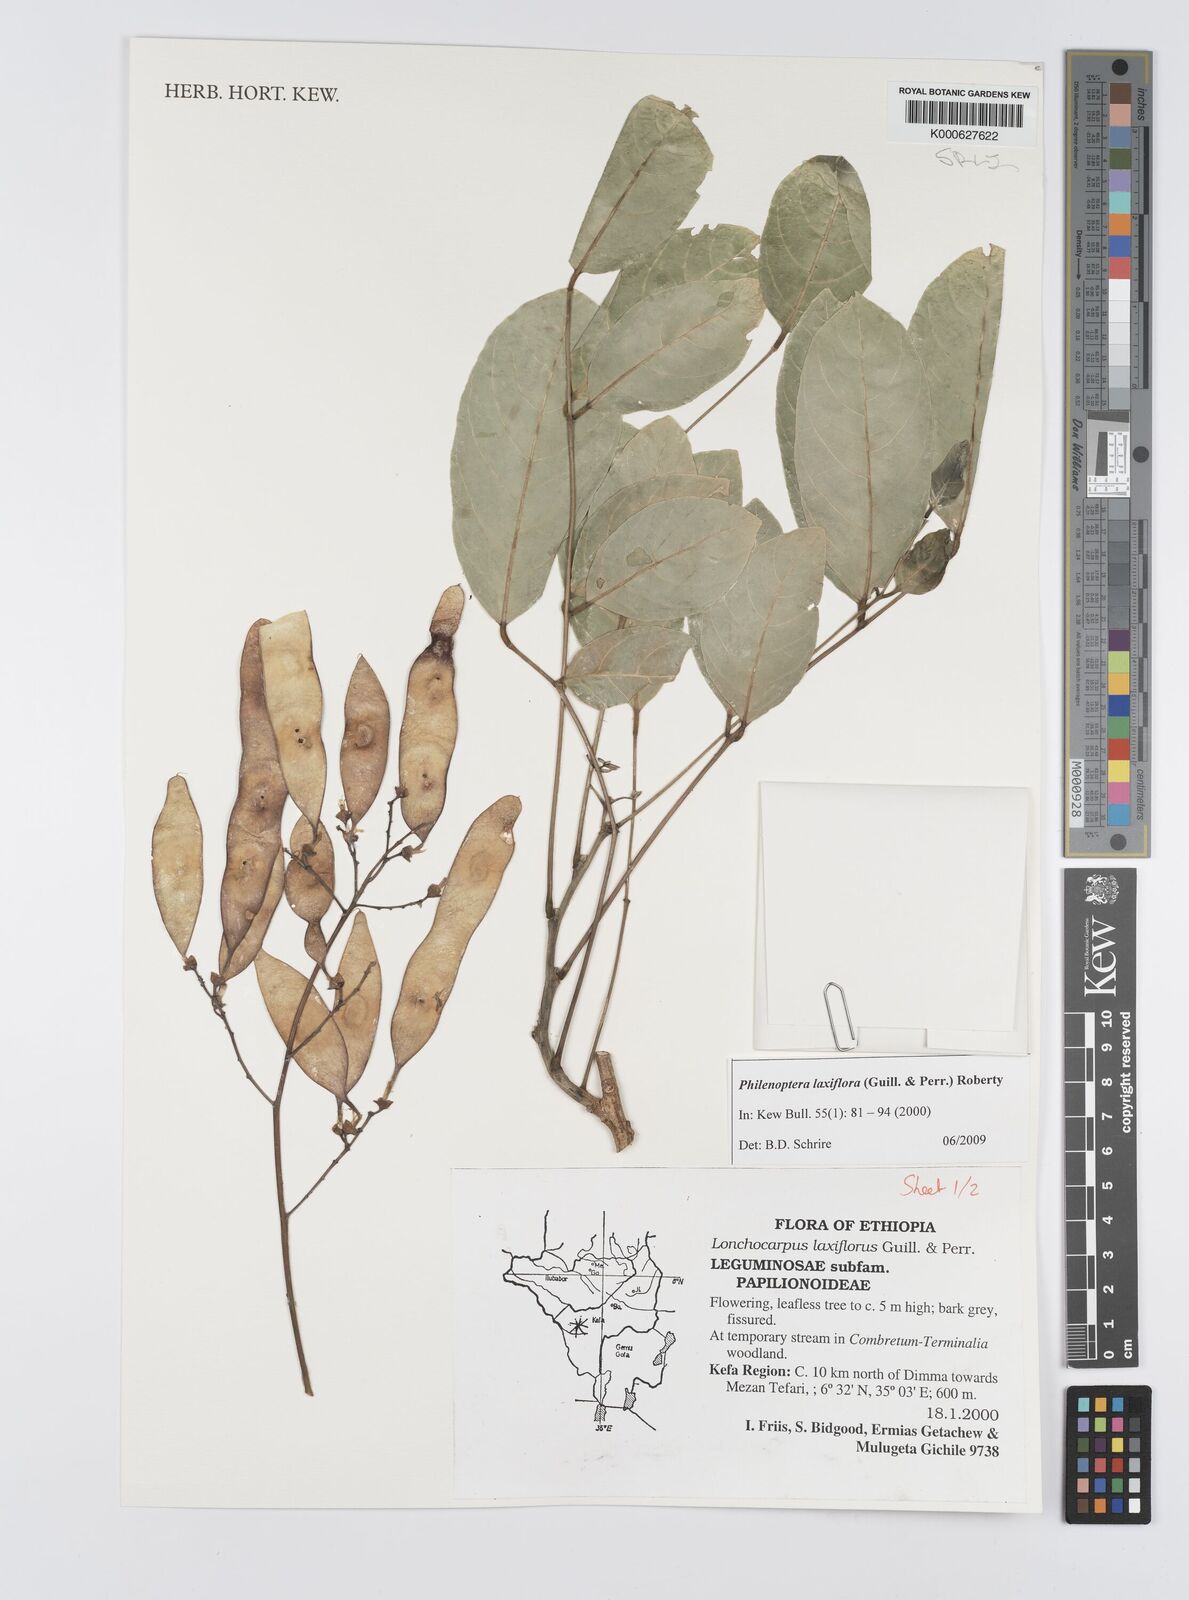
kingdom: Plantae
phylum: Tracheophyta
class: Magnoliopsida
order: Fabales
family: Fabaceae
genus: Philenoptera
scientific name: Philenoptera laxiflora
